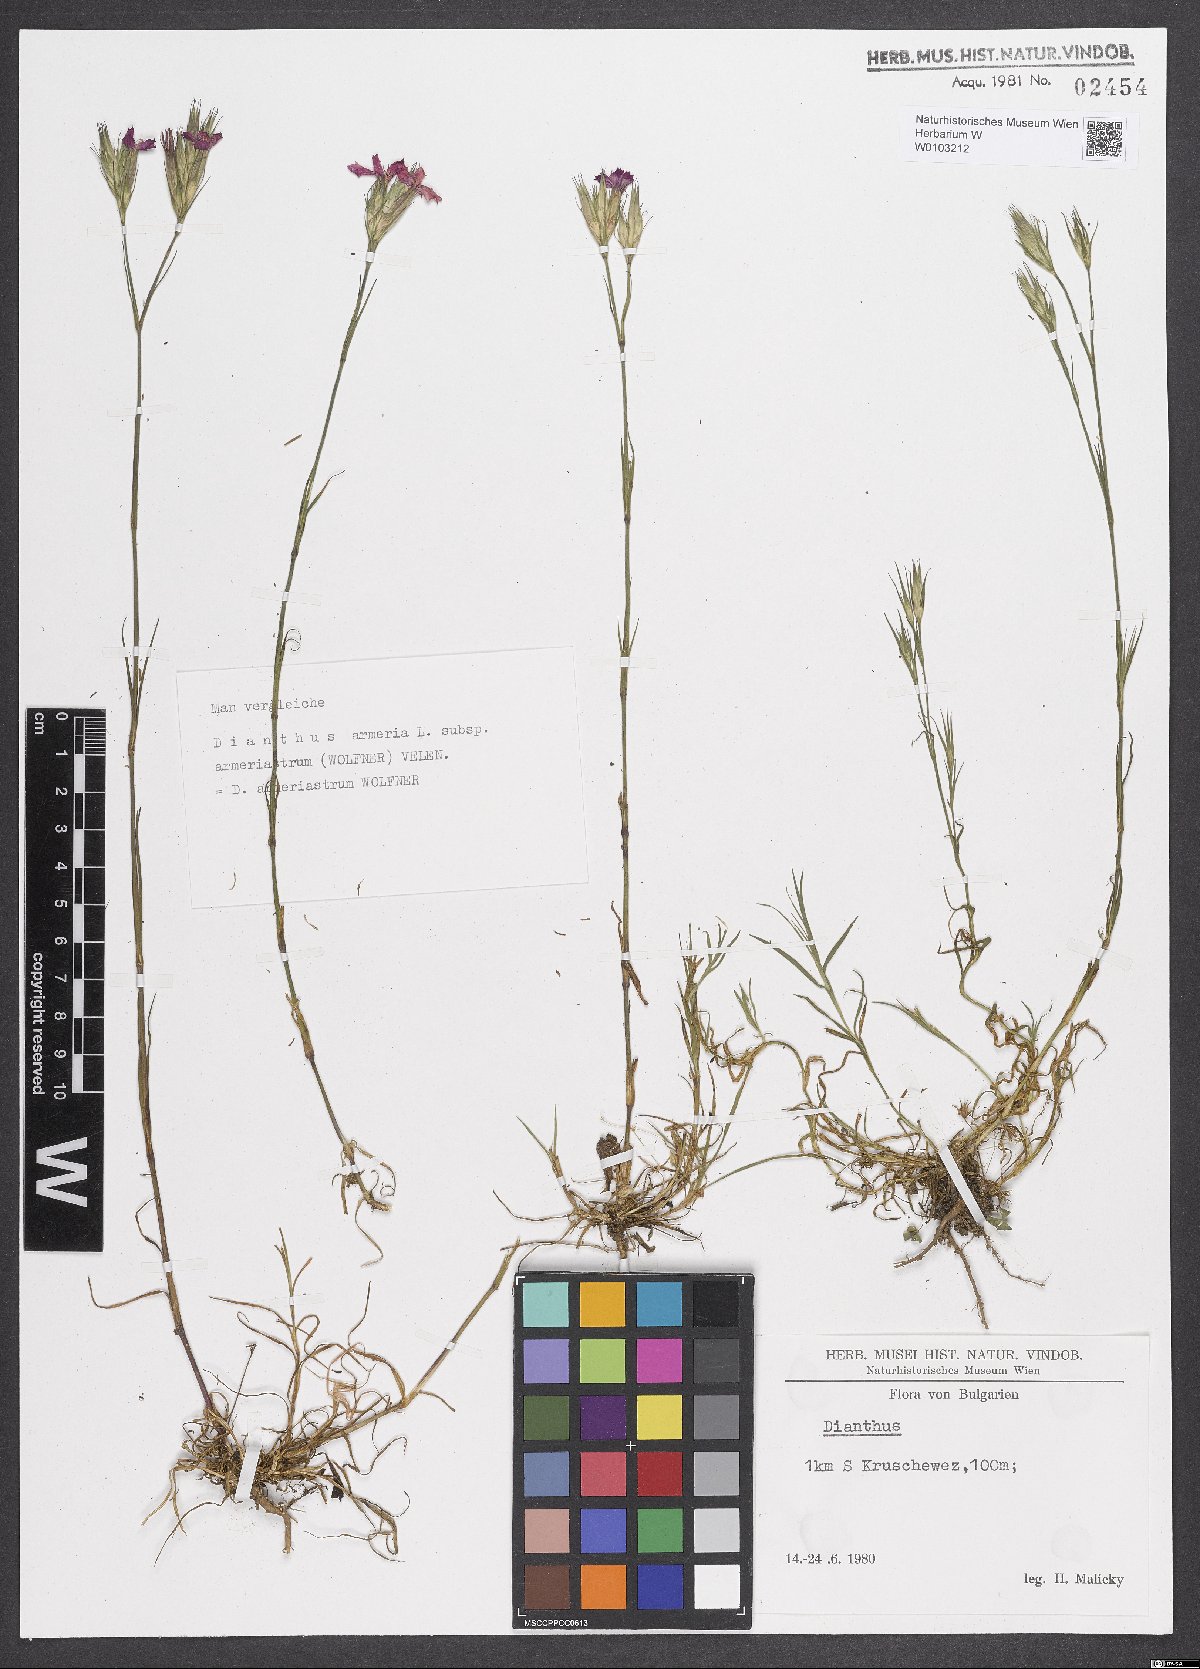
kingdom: Plantae
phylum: Tracheophyta
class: Magnoliopsida
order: Caryophyllales
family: Caryophyllaceae
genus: Dianthus
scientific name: Dianthus armeria
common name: Deptford pink
